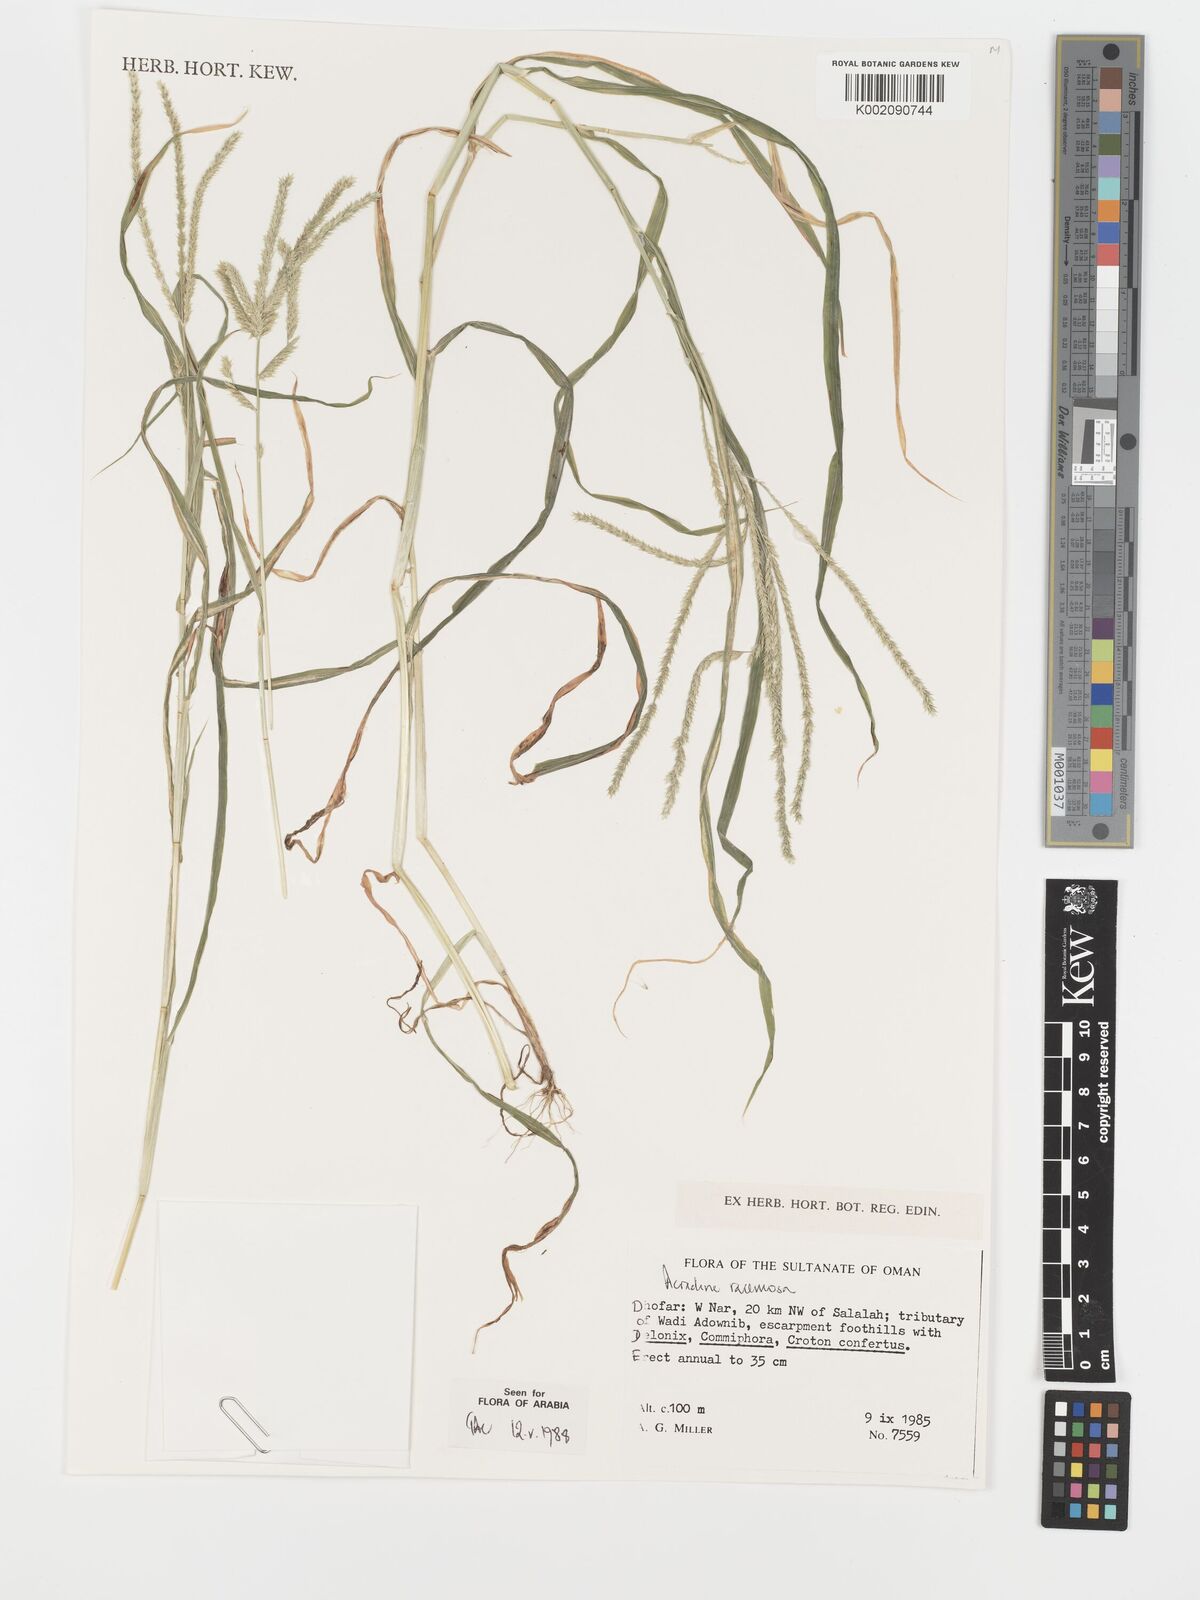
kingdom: Plantae
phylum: Tracheophyta
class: Liliopsida
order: Poales
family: Poaceae
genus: Acrachne
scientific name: Acrachne racemosa
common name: Goosegrass
